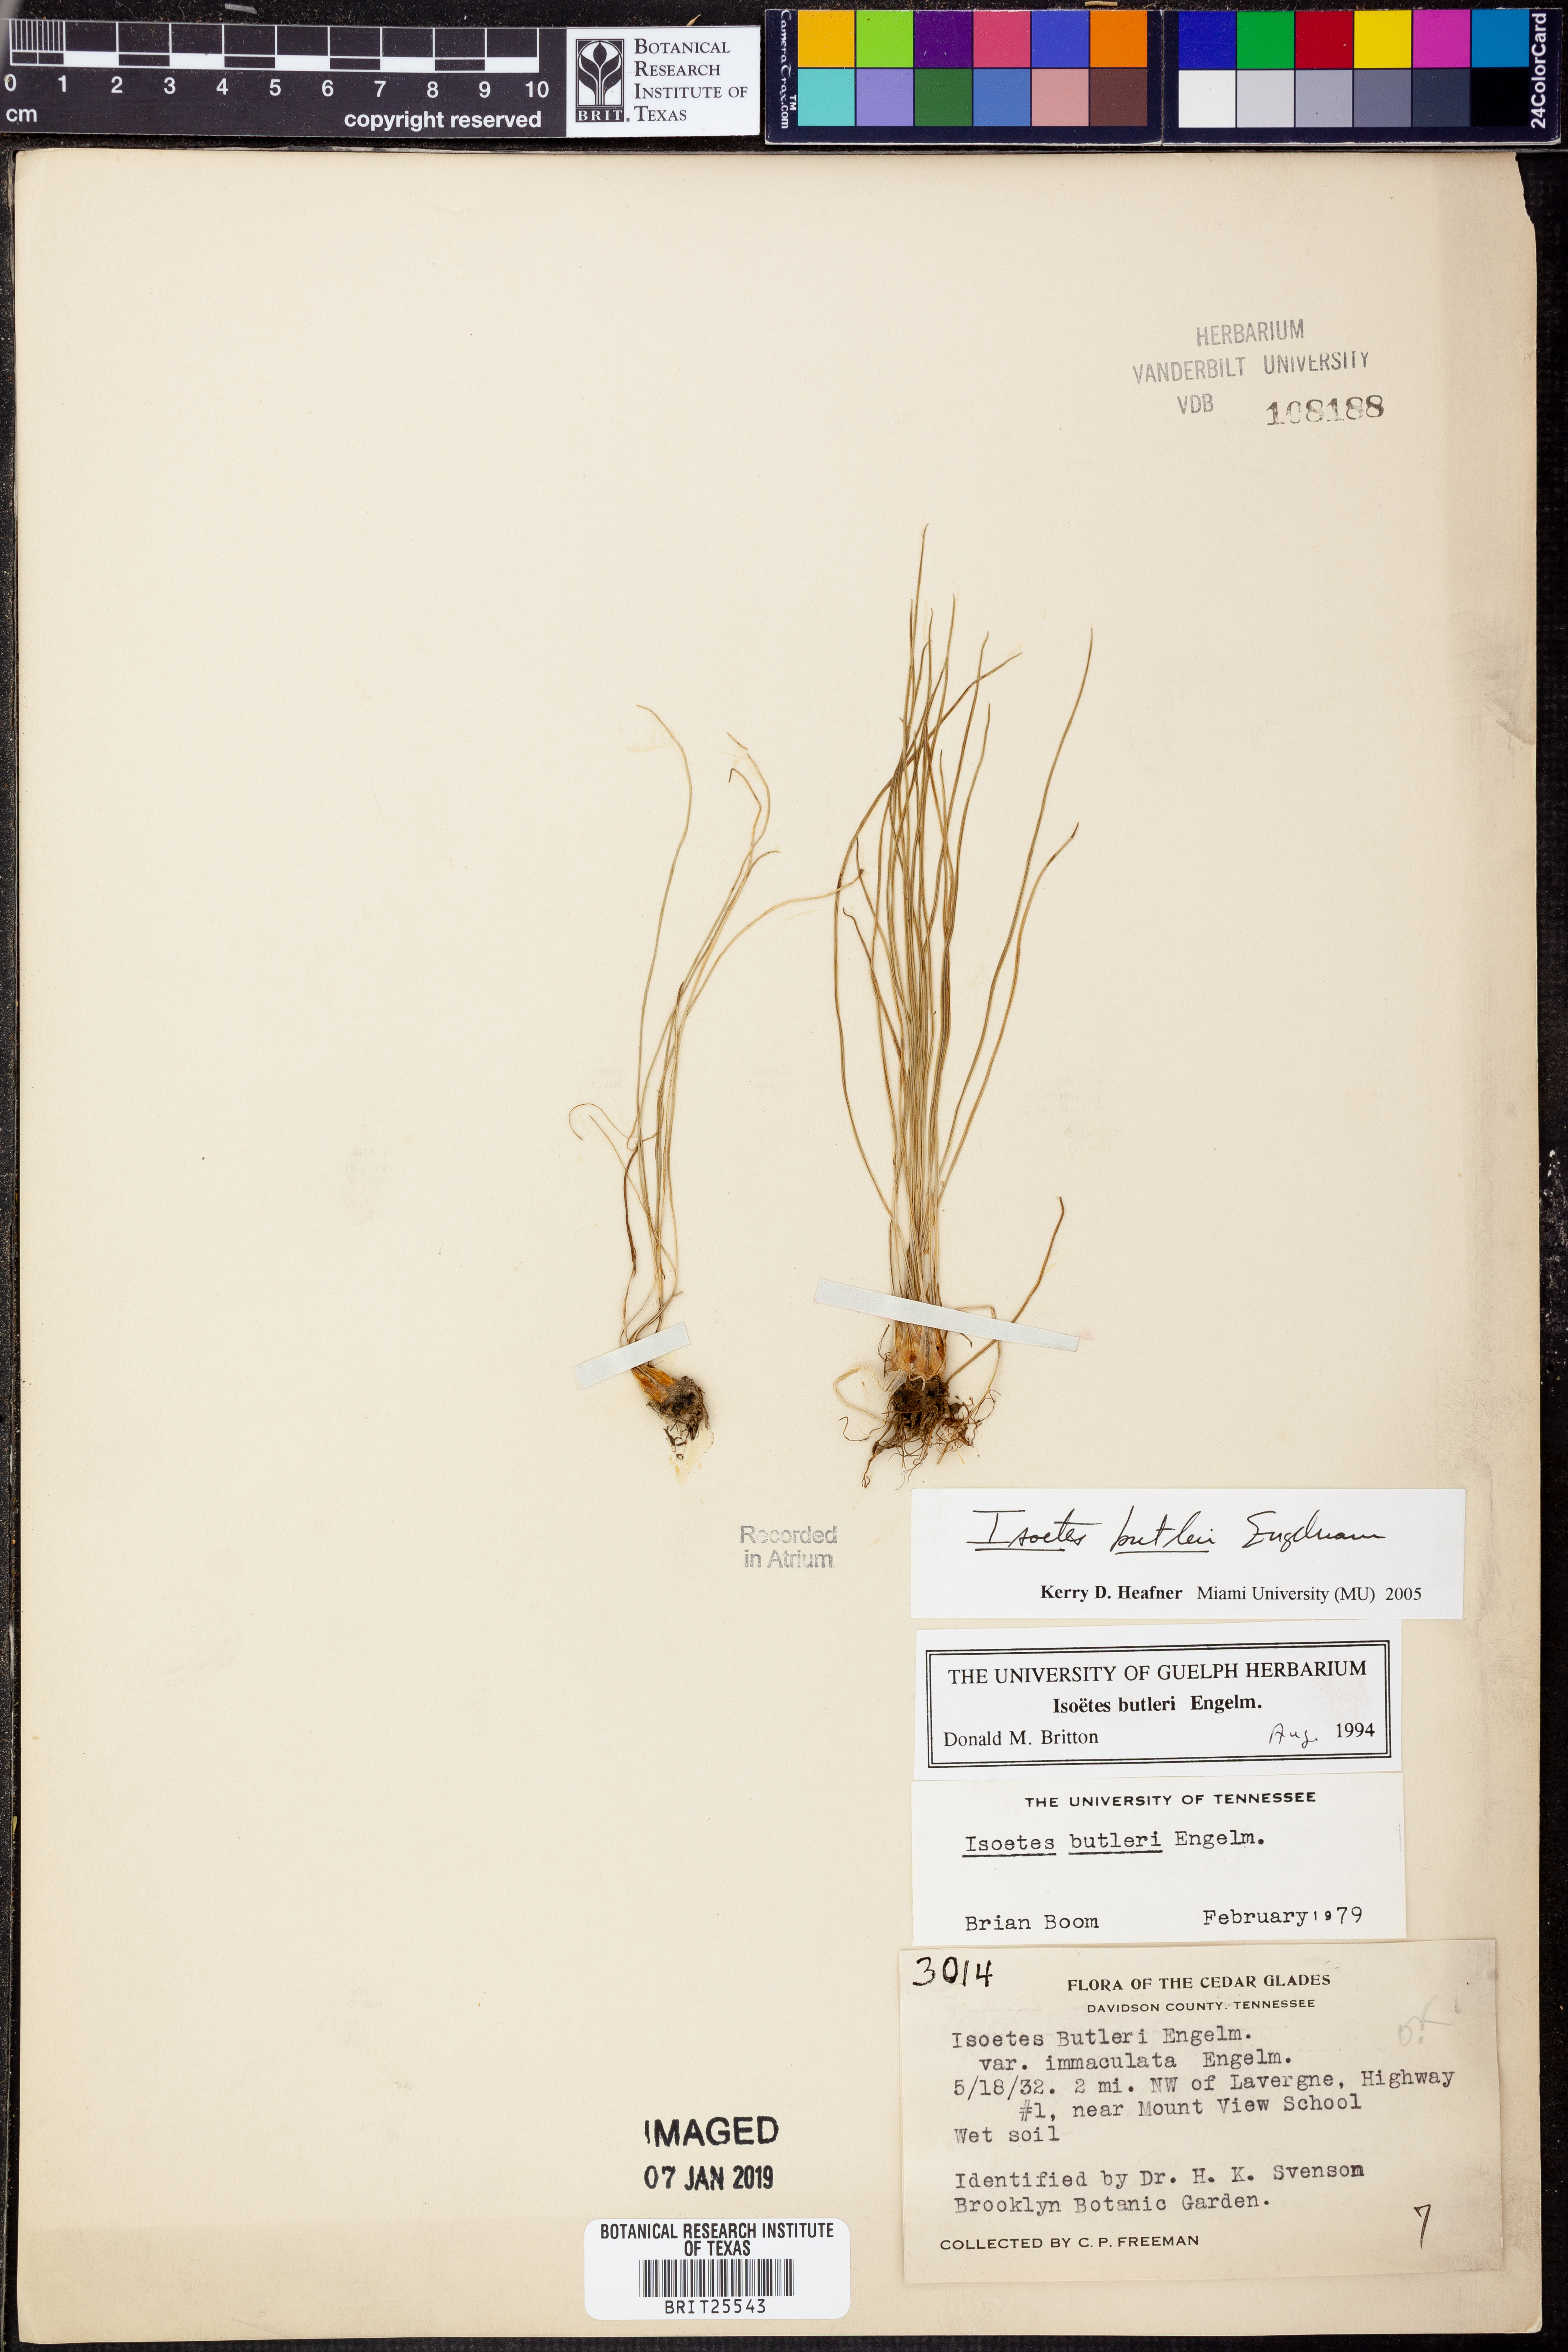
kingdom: Plantae
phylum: Tracheophyta
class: Lycopodiopsida
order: Isoetales
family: Isoetaceae
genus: Isoetes
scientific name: Isoetes butleri
